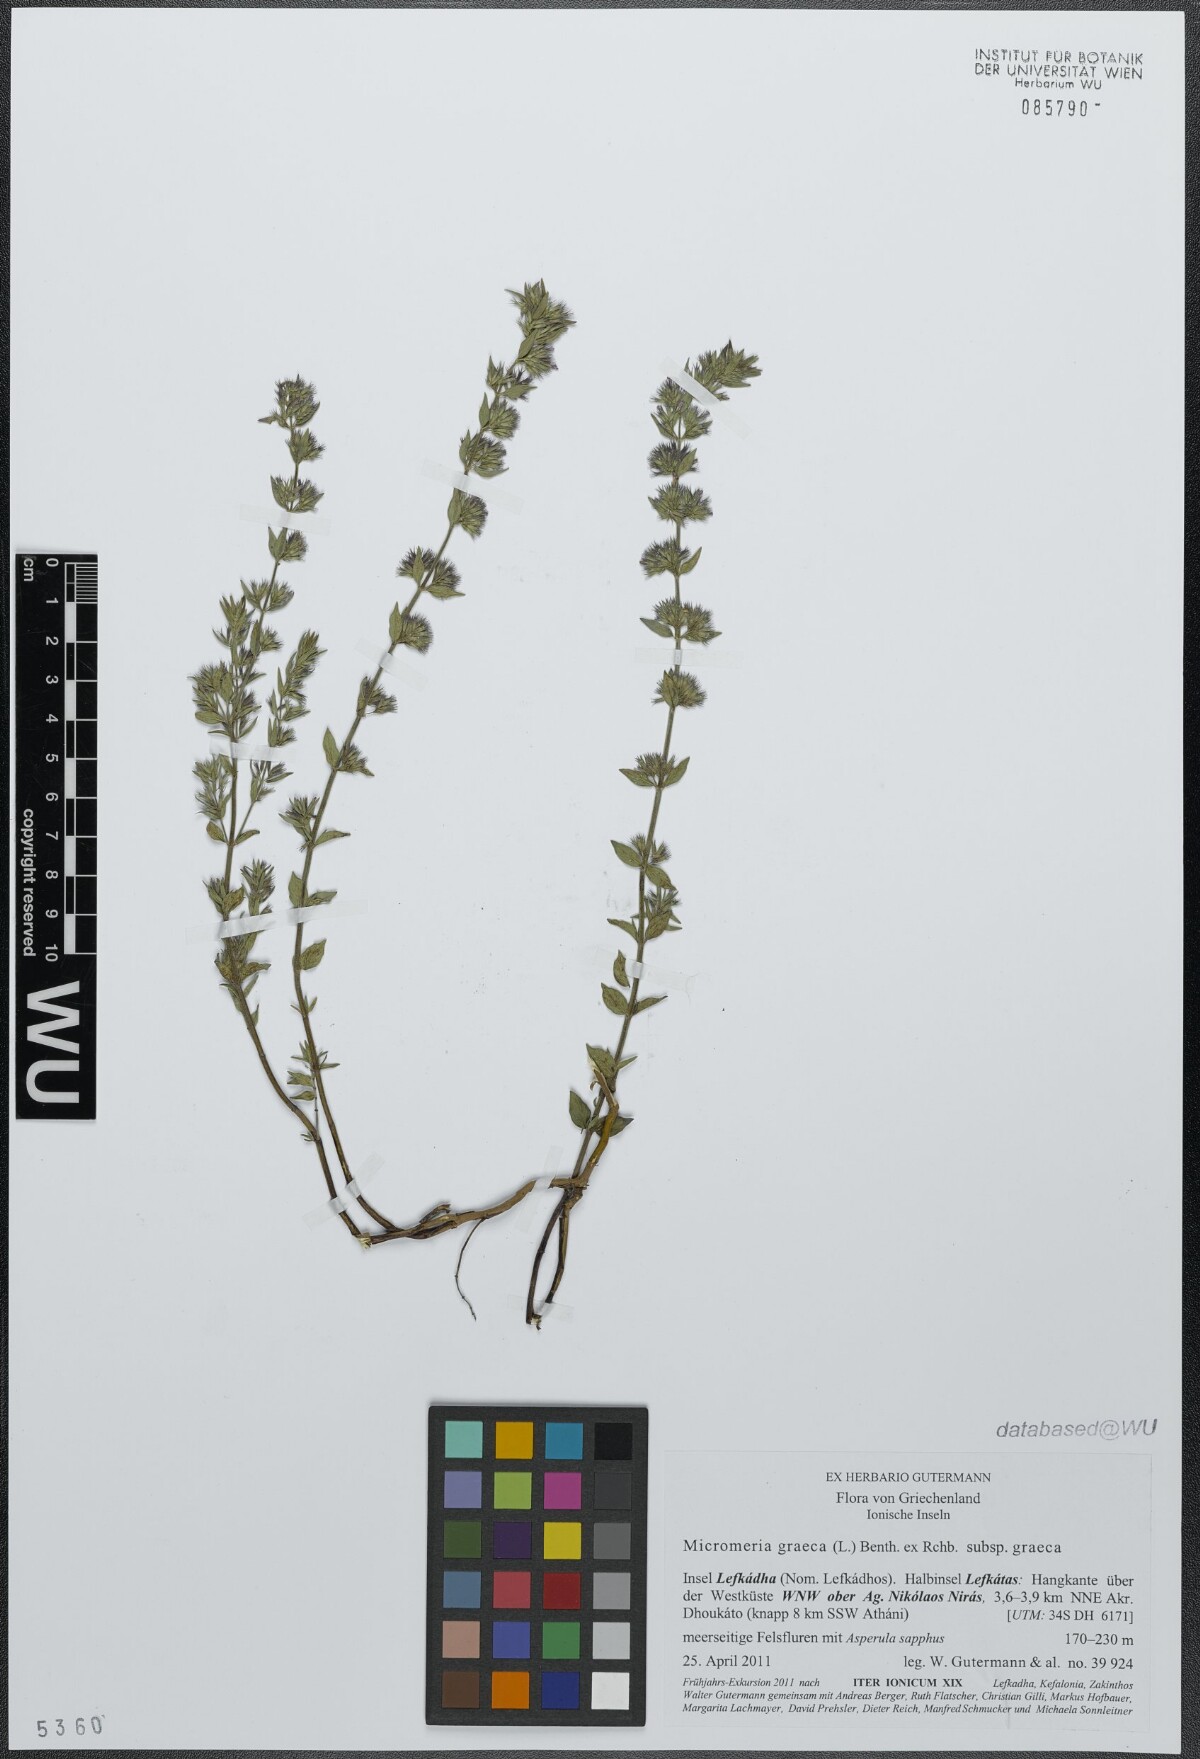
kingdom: Plantae
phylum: Tracheophyta
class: Magnoliopsida
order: Lamiales
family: Lamiaceae
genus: Micromeria
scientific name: Micromeria graeca
